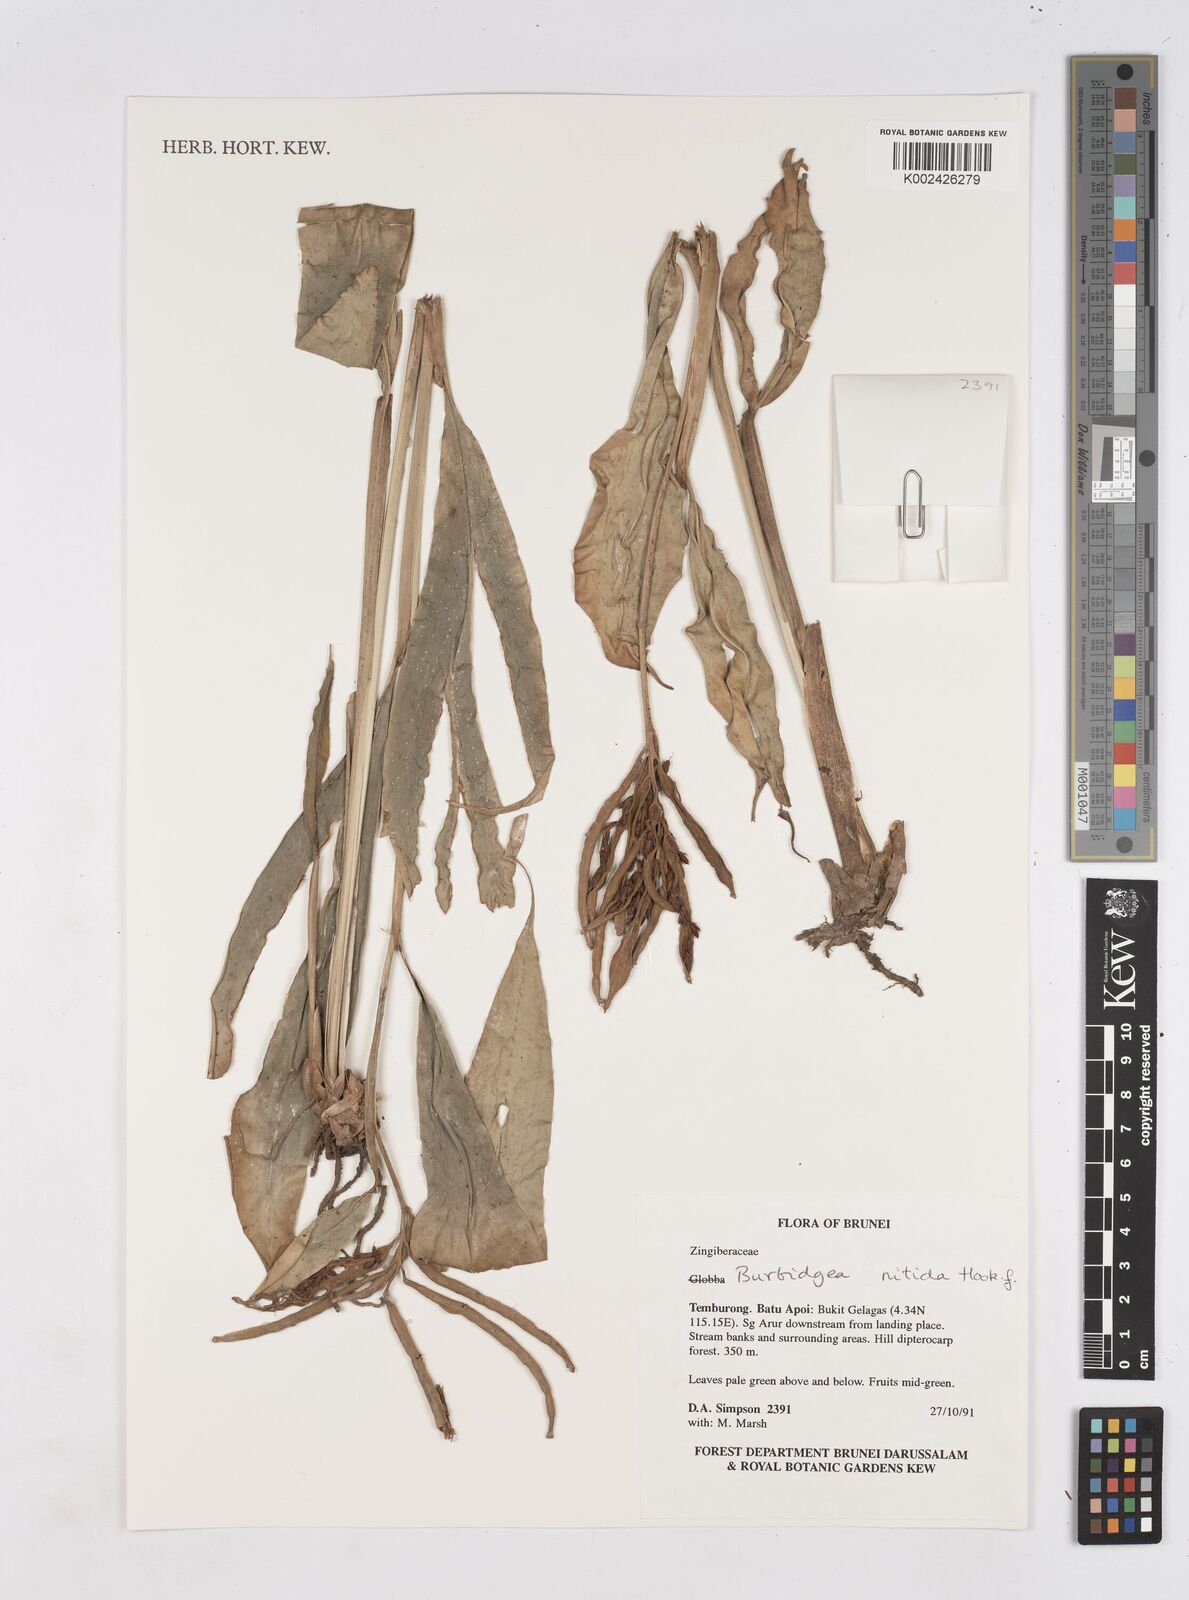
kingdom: Plantae
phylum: Tracheophyta
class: Liliopsida
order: Zingiberales
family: Zingiberaceae
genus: Burbidgea
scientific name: Burbidgea nitida
